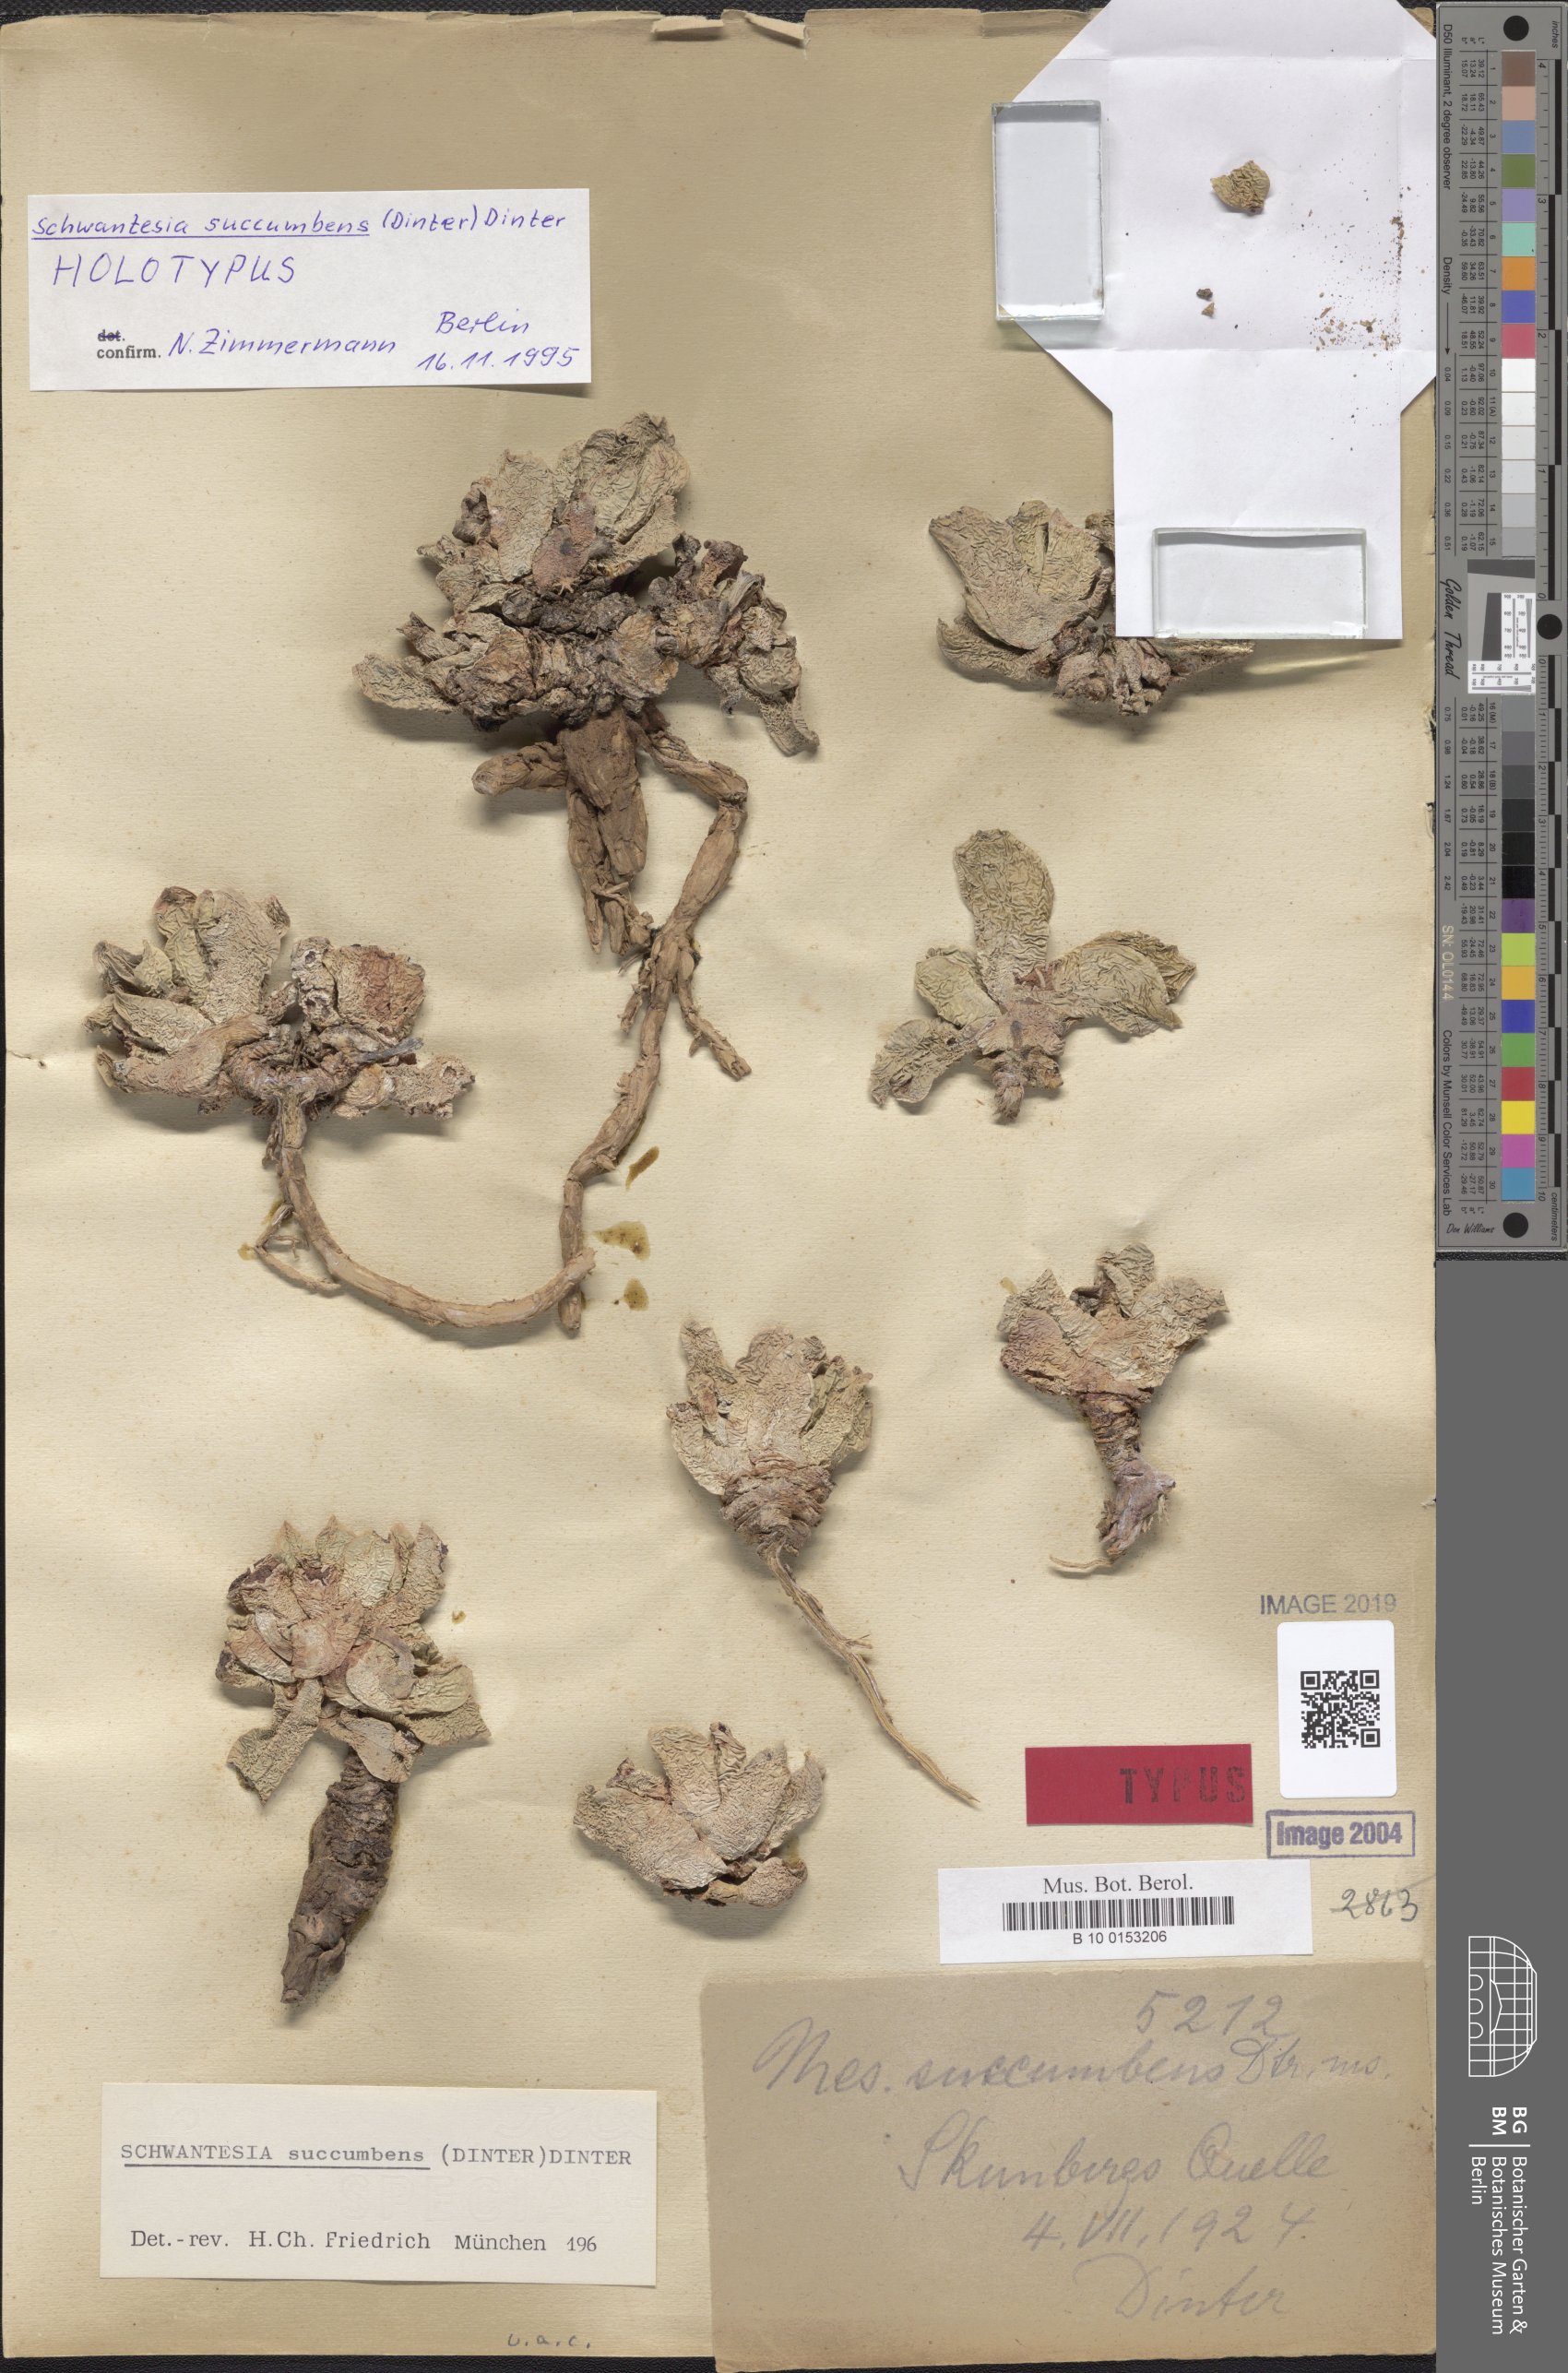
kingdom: Plantae
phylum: Tracheophyta
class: Magnoliopsida
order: Caryophyllales
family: Aizoaceae
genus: Schwantesia
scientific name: Schwantesia succumbens
